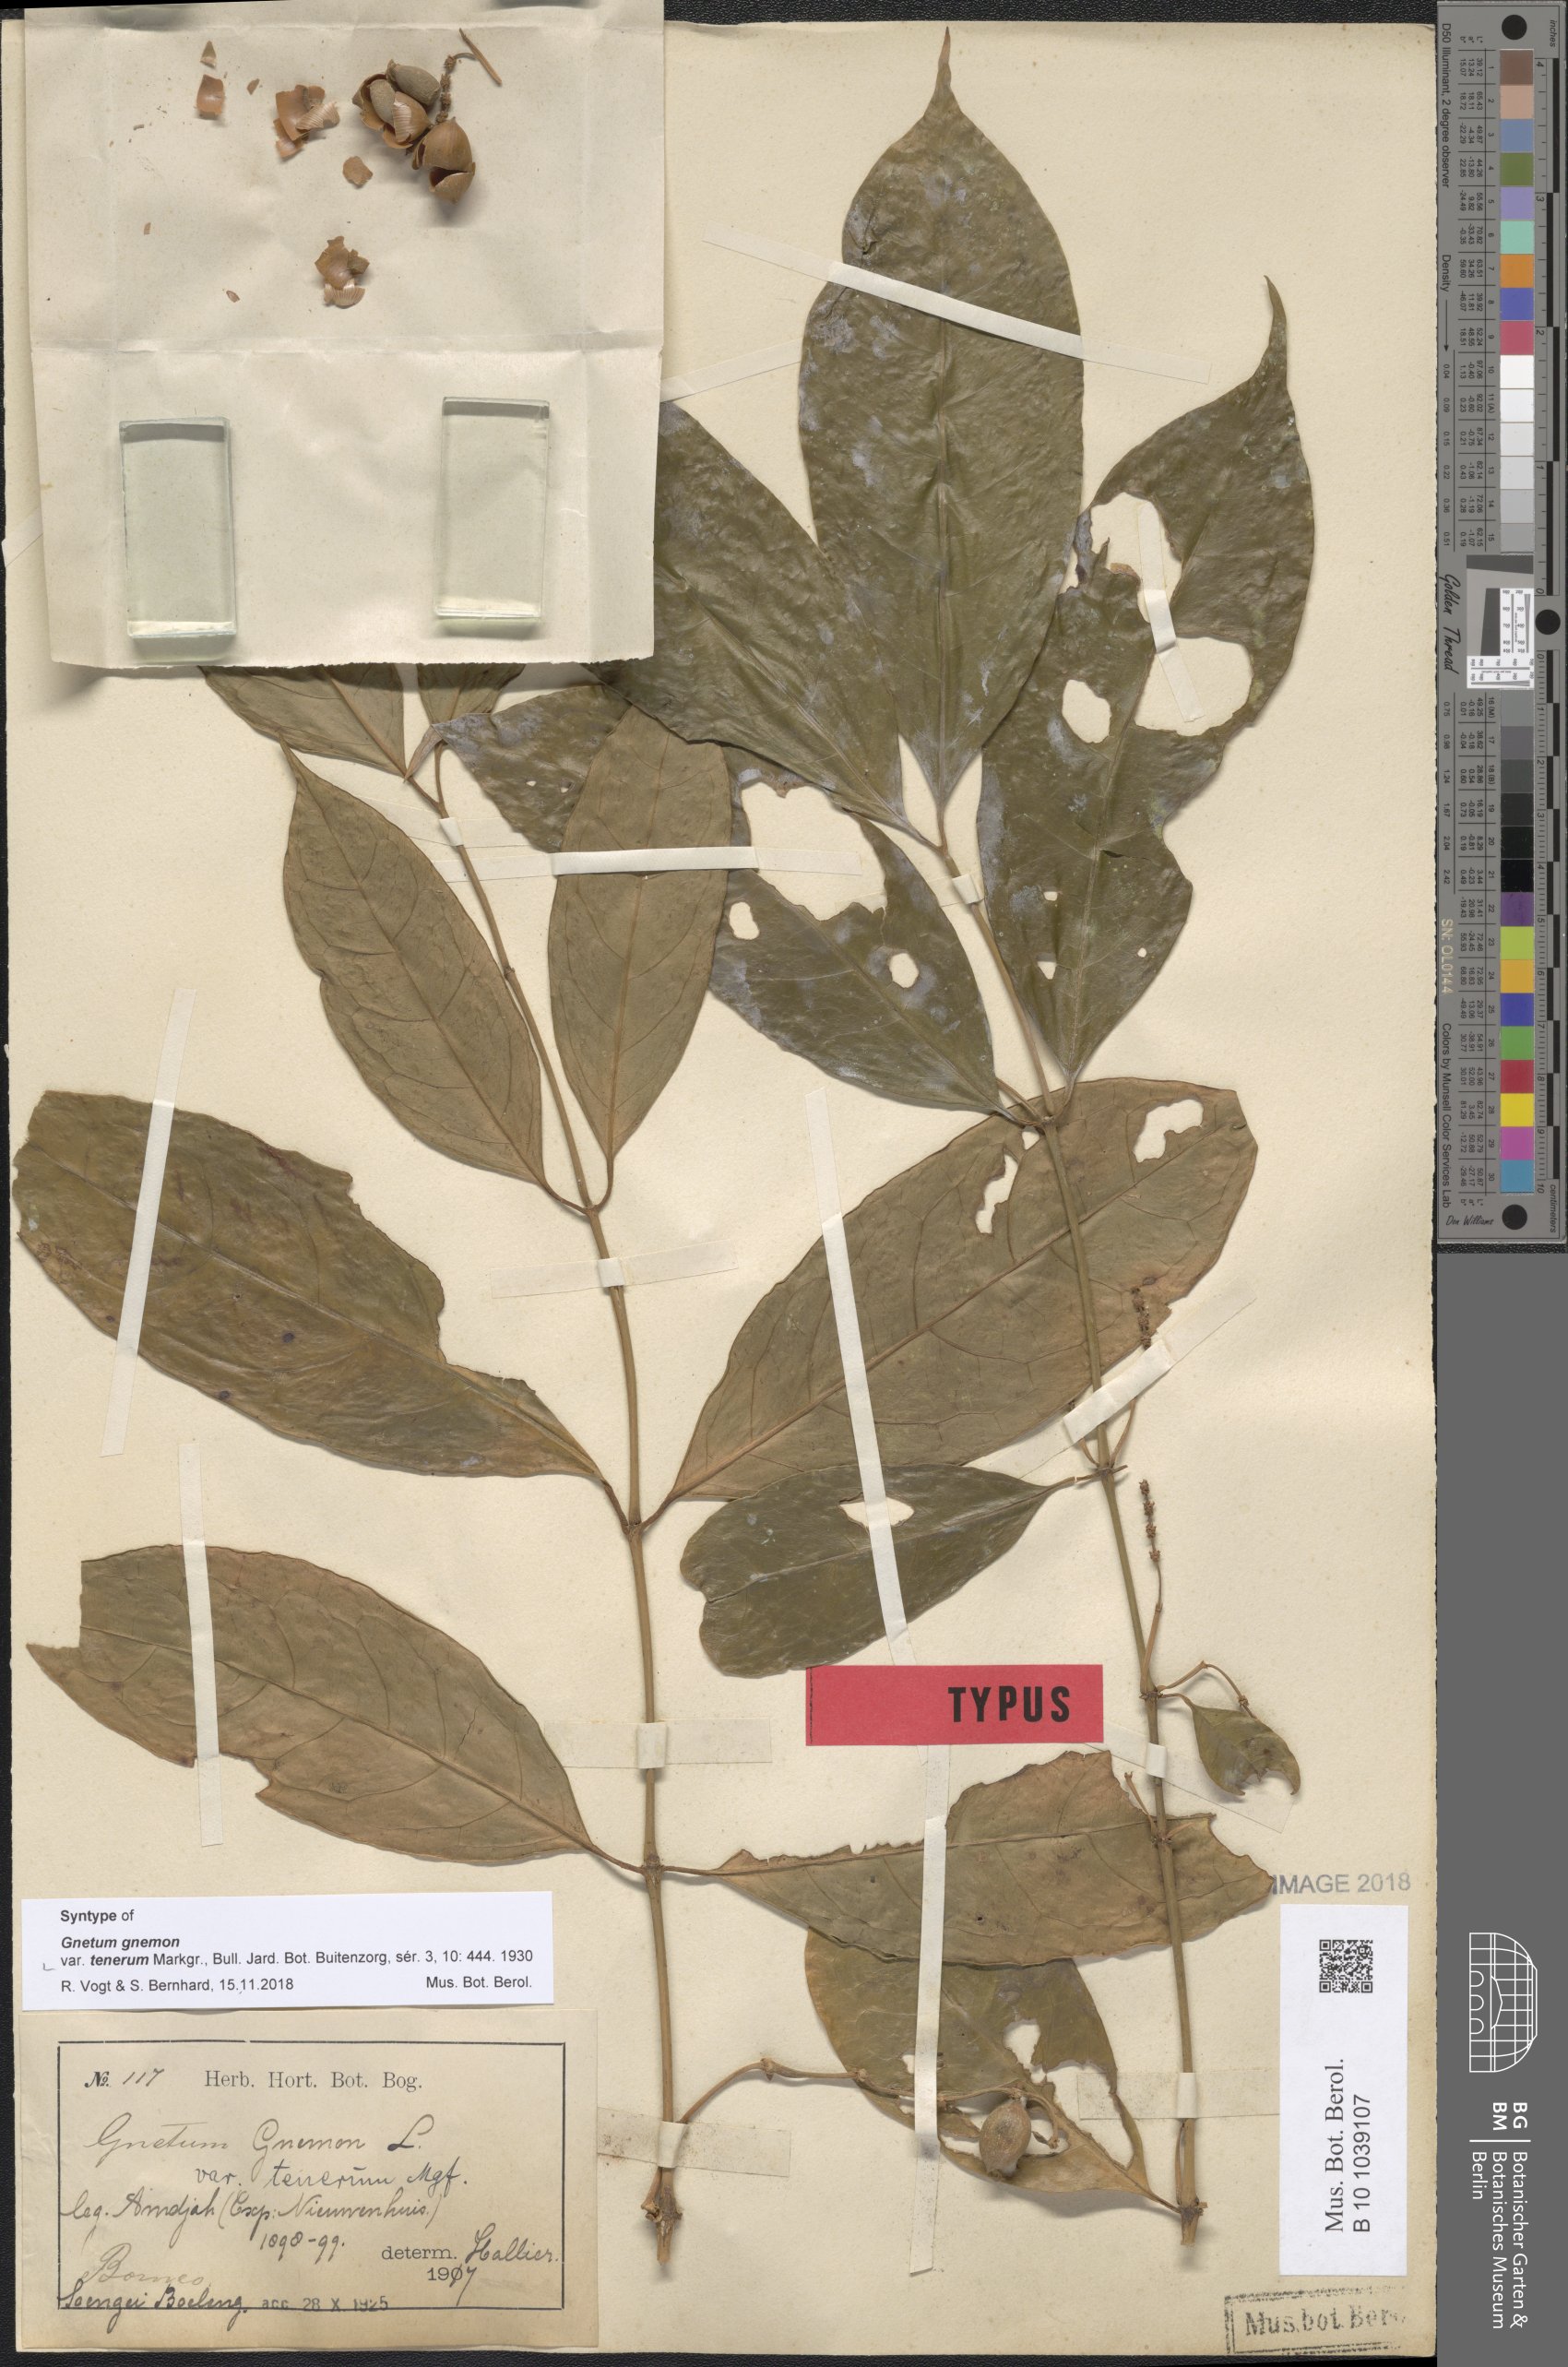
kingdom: Plantae
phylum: Tracheophyta
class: Gnetopsida
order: Gnetales
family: Gnetaceae
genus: Gnetum
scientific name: Gnetum gnemon
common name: Spanish joint-fir
